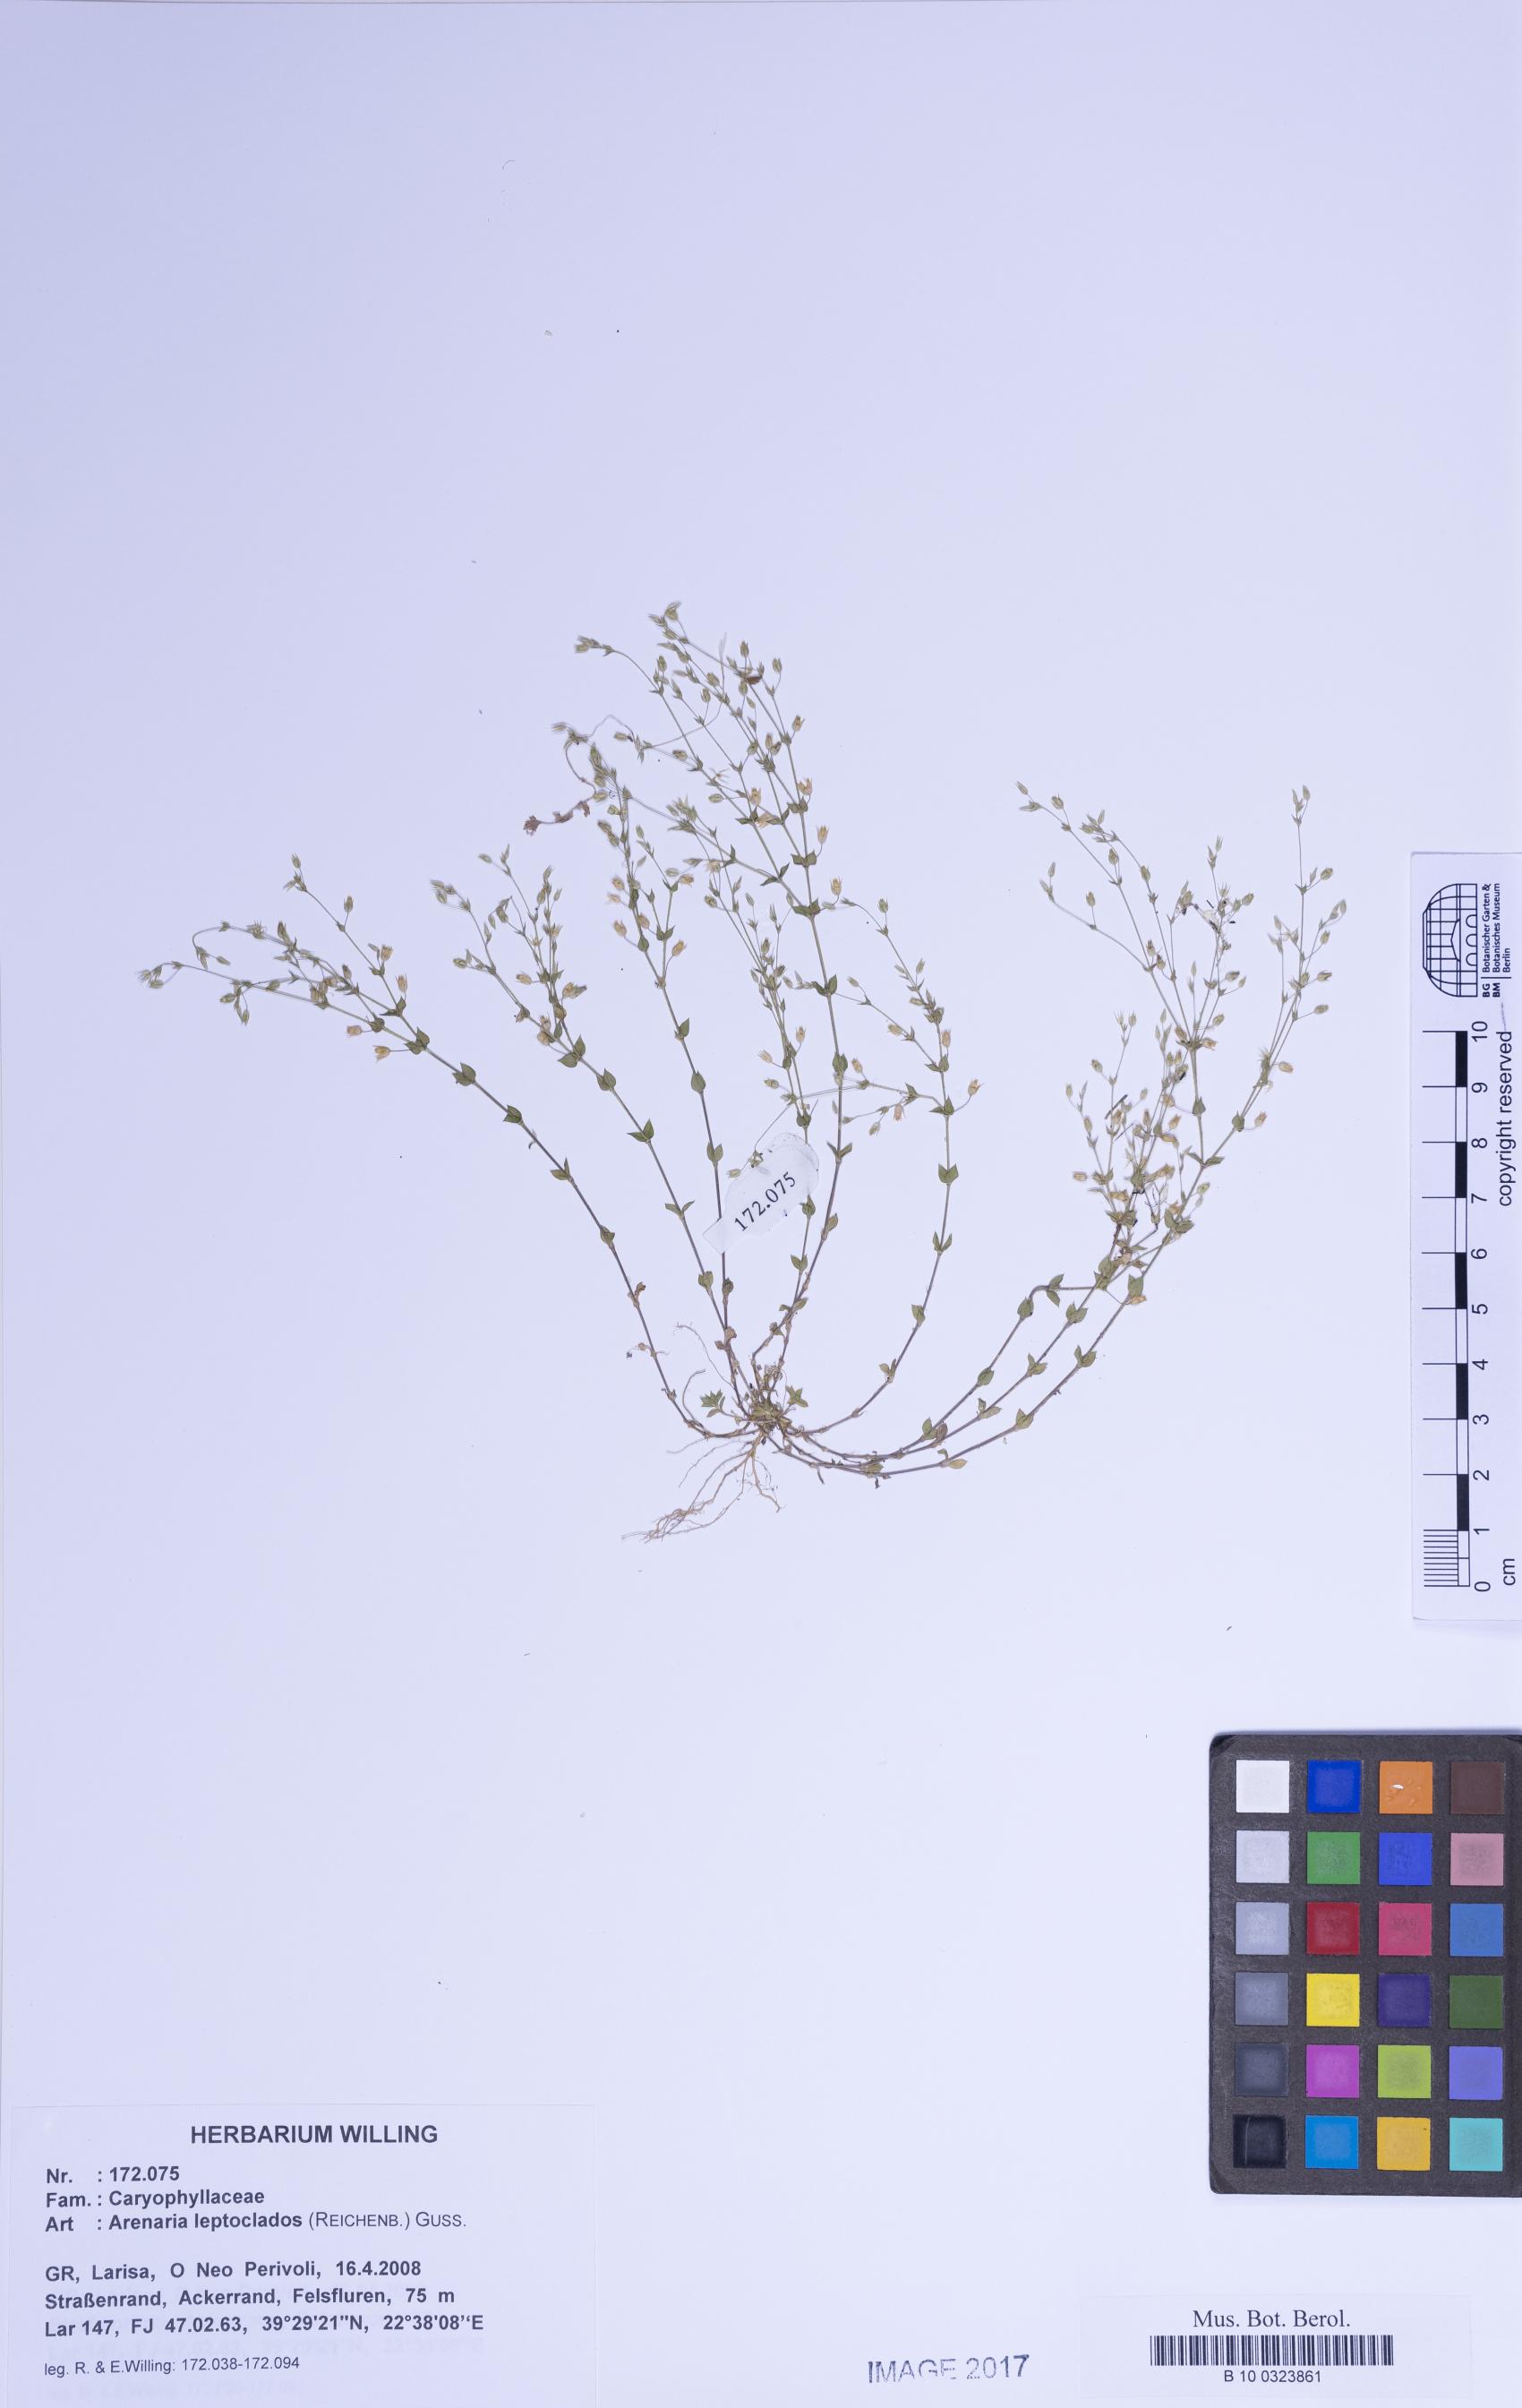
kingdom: Plantae
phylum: Tracheophyta
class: Magnoliopsida
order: Caryophyllales
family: Caryophyllaceae
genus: Arenaria
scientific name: Arenaria leptoclados
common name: Thyme-leaved sandwort
